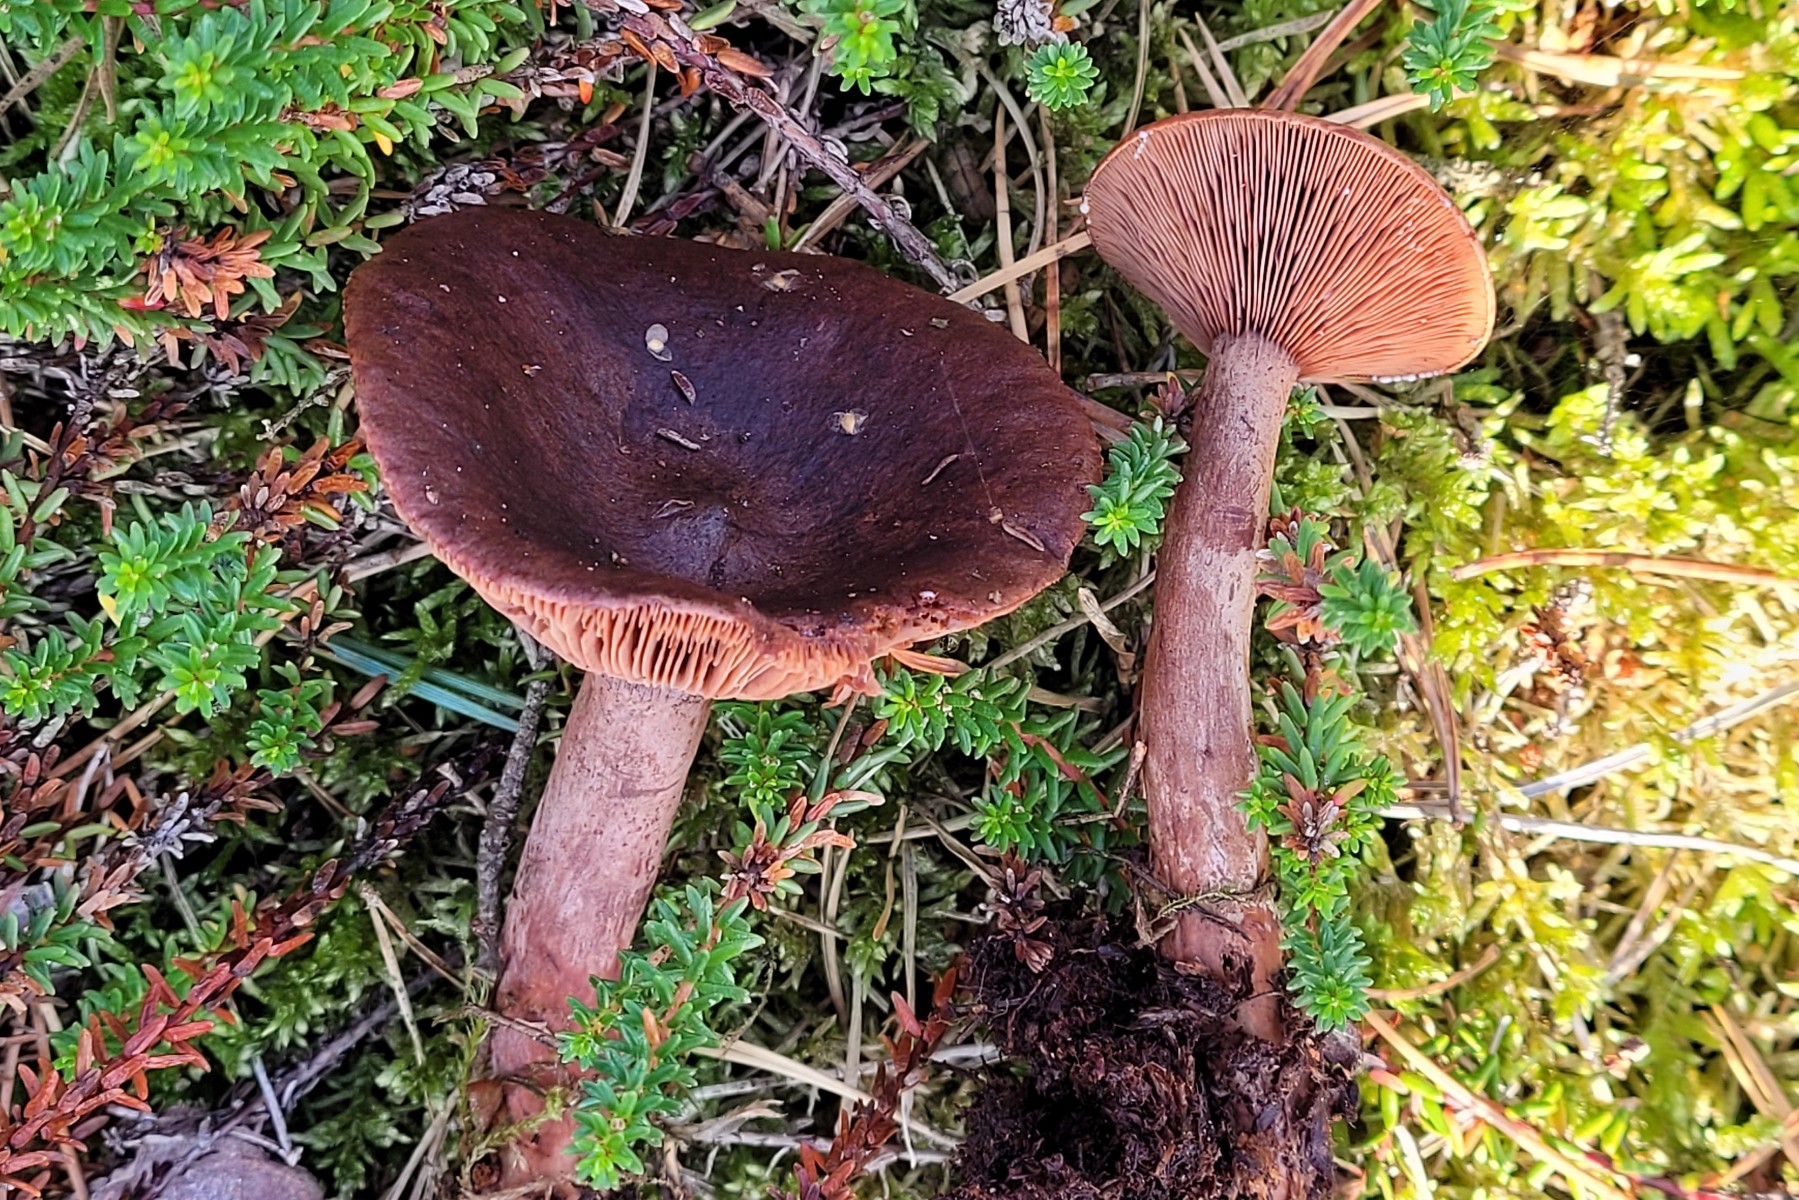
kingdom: Fungi
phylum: Basidiomycota
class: Agaricomycetes
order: Russulales
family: Russulaceae
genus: Lactarius
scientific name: Lactarius hepaticus
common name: leverbrun mælkehat
